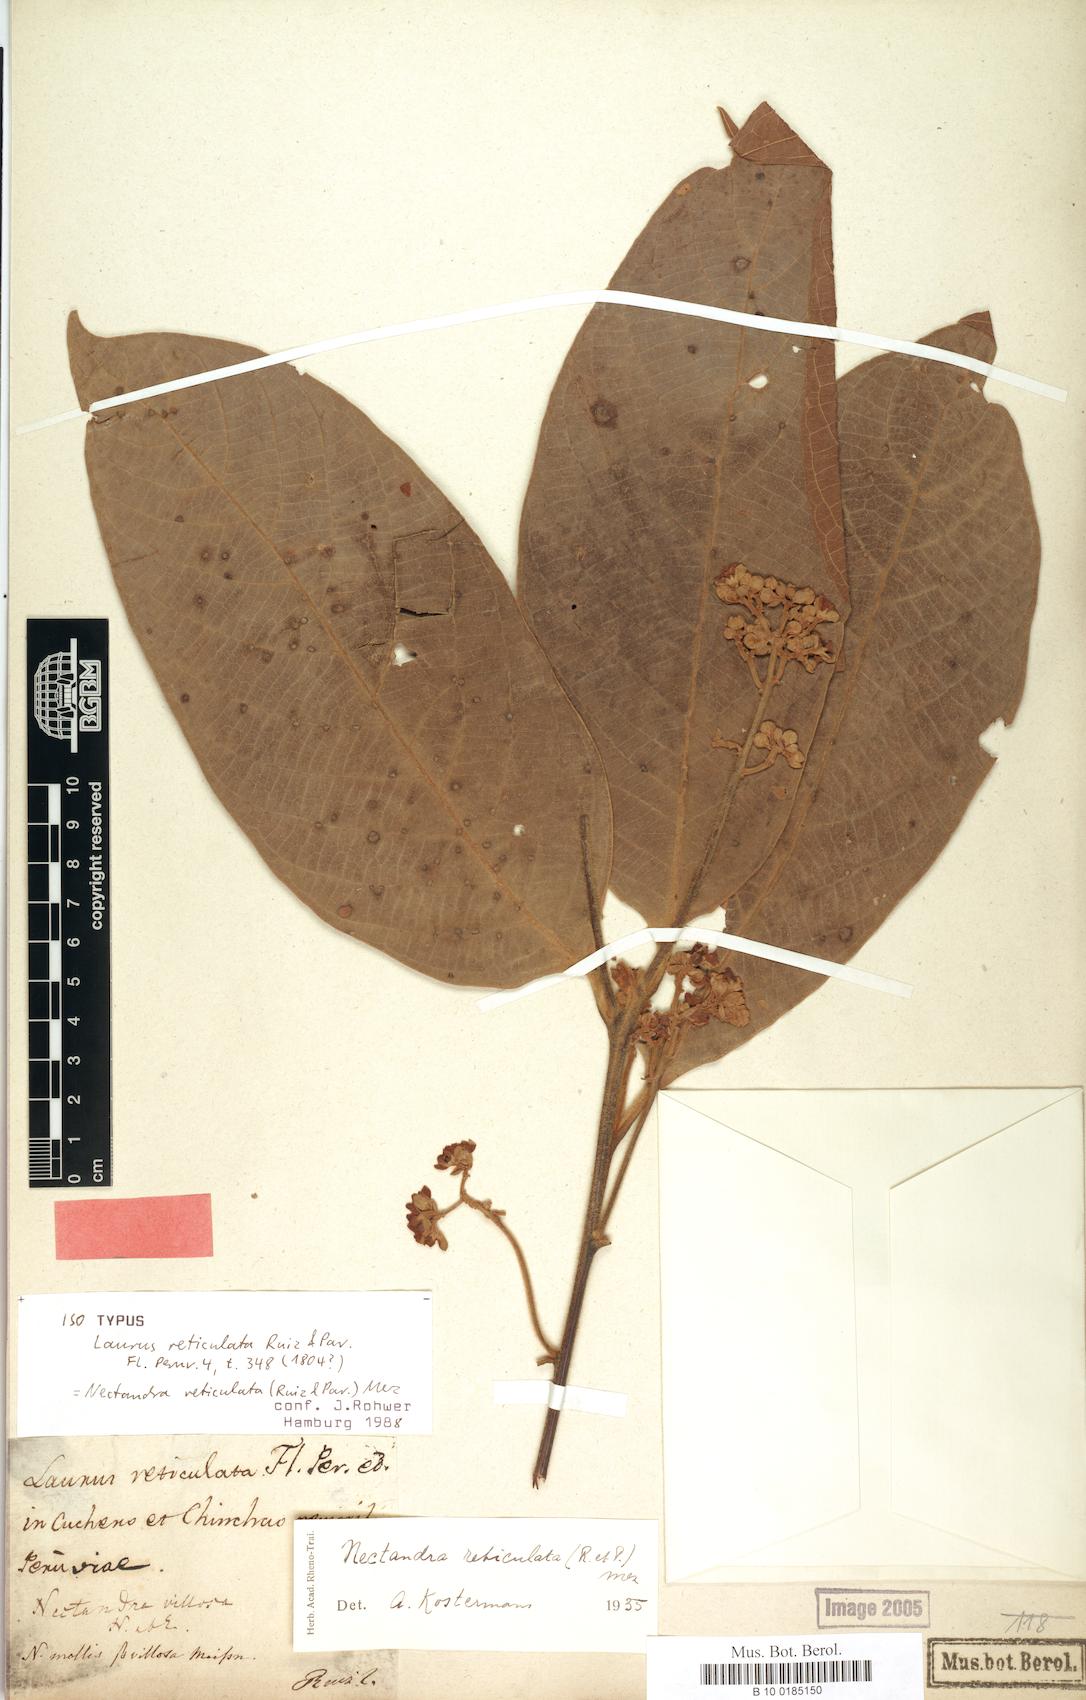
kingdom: Plantae
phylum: Tracheophyta
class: Magnoliopsida
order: Laurales
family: Lauraceae
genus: Nectandra
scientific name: Nectandra villosa
